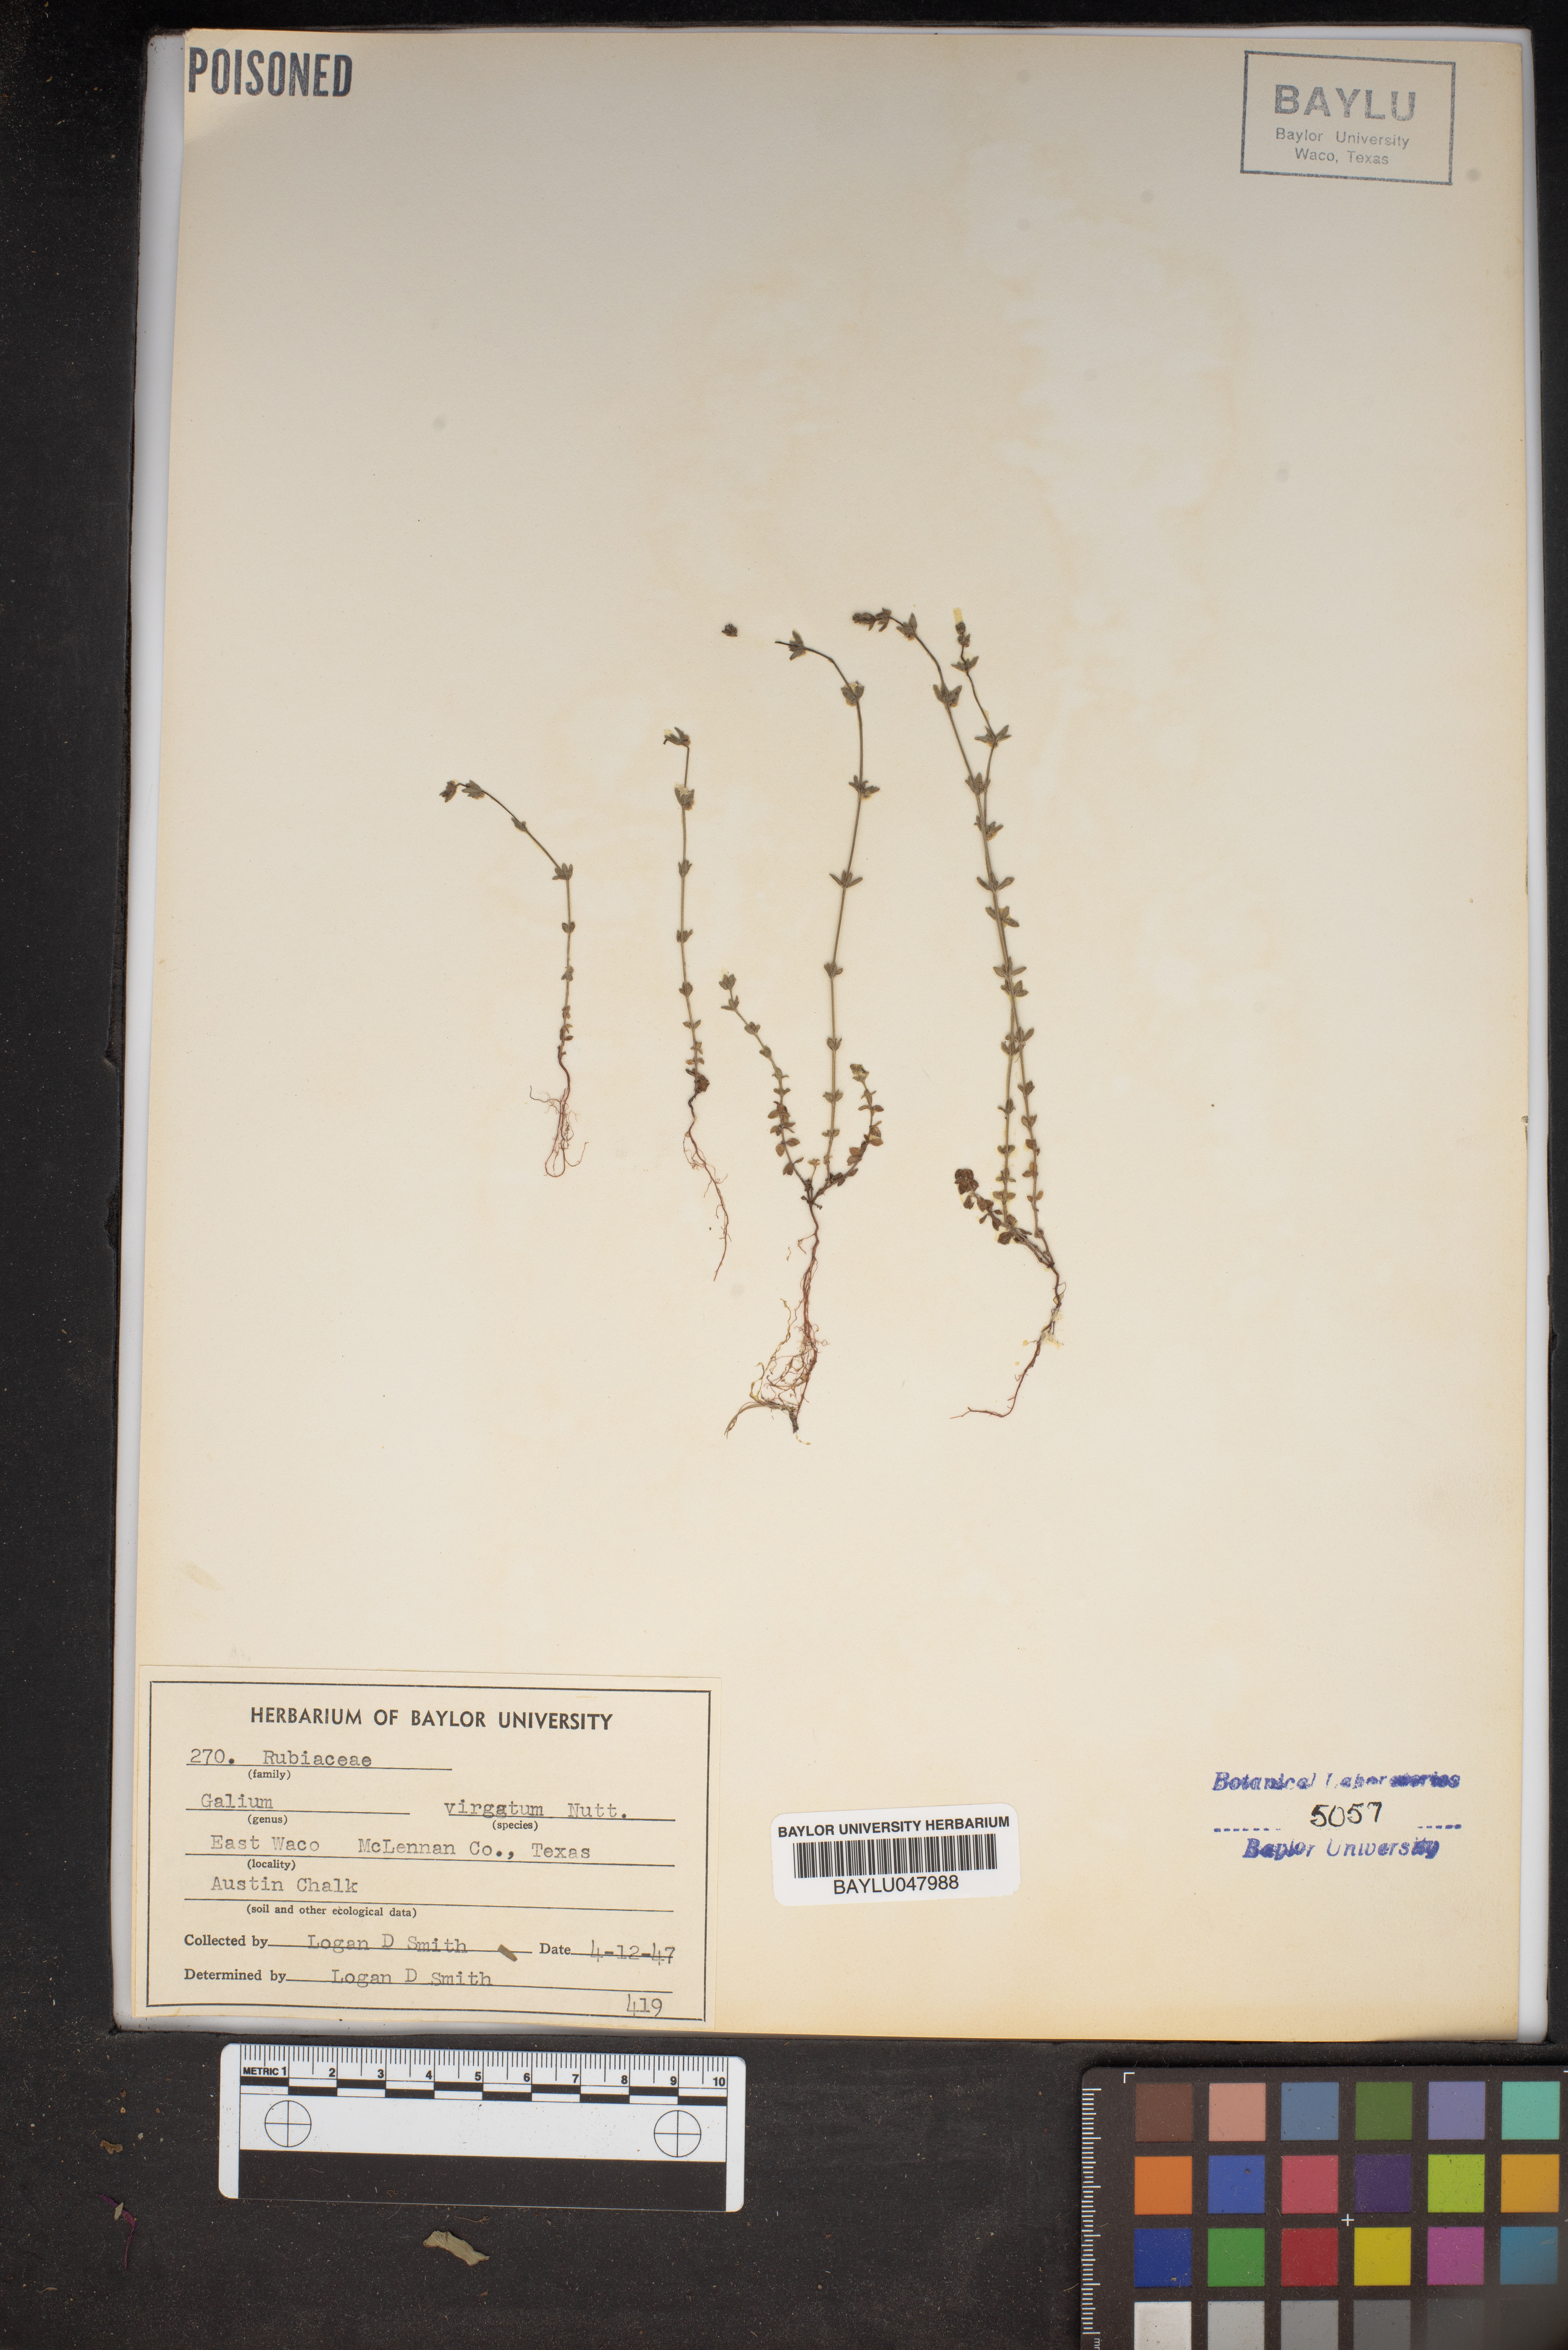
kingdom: Plantae
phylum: Tracheophyta
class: Magnoliopsida
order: Gentianales
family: Rubiaceae
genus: Galium
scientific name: Galium virgatum
